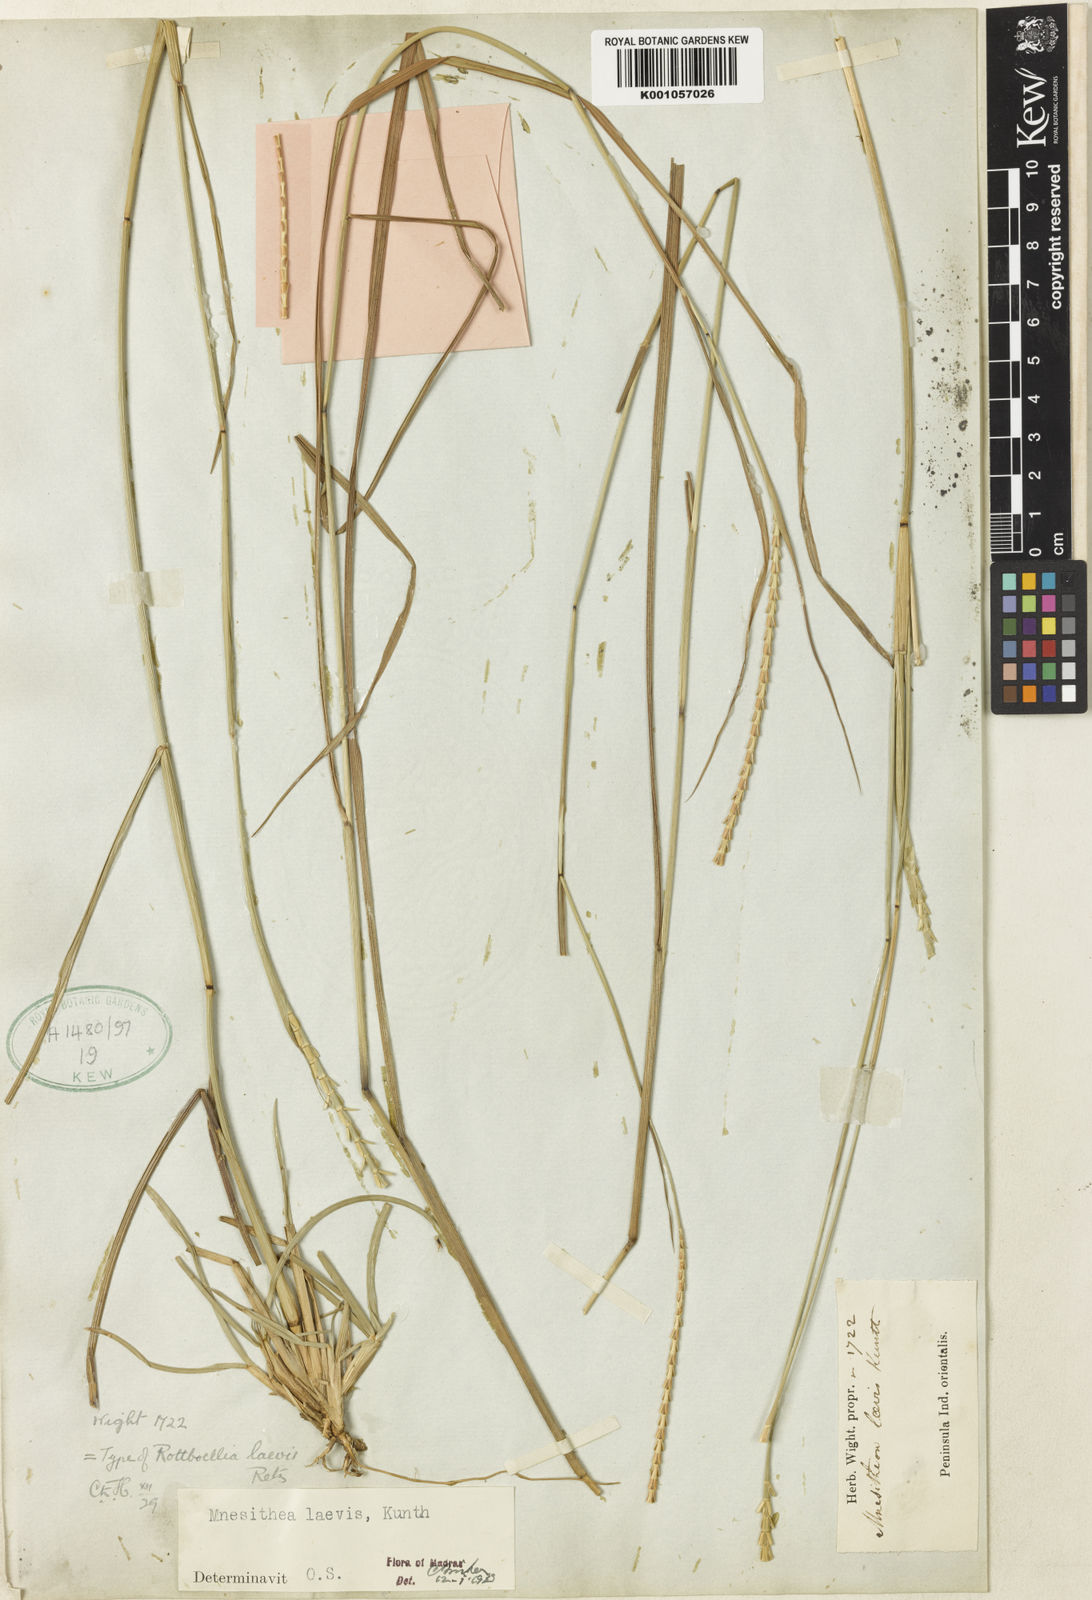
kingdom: Plantae
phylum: Tracheophyta
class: Liliopsida
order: Poales
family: Poaceae
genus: Mnesithea
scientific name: Mnesithea laevis
